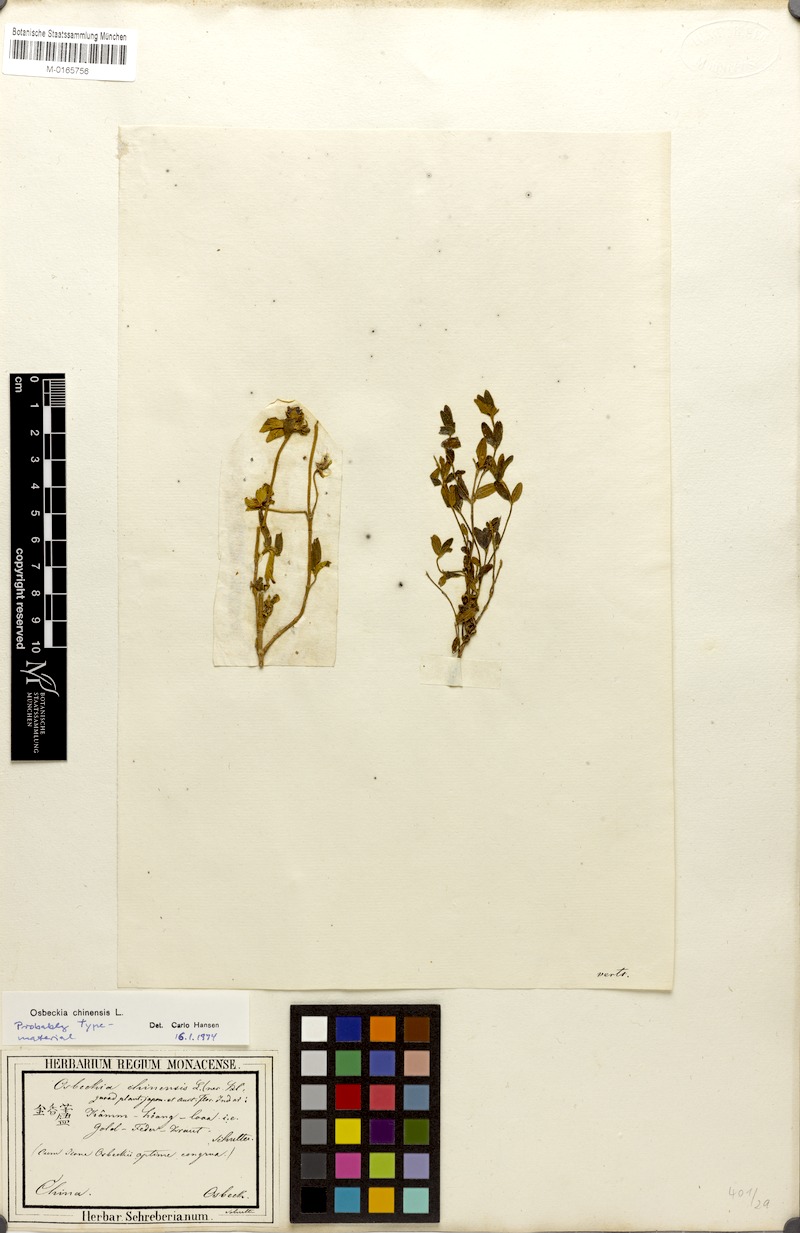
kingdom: Plantae
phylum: Tracheophyta
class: Magnoliopsida
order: Myrtales
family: Melastomataceae
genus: Osbeckia
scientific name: Osbeckia chinensis
